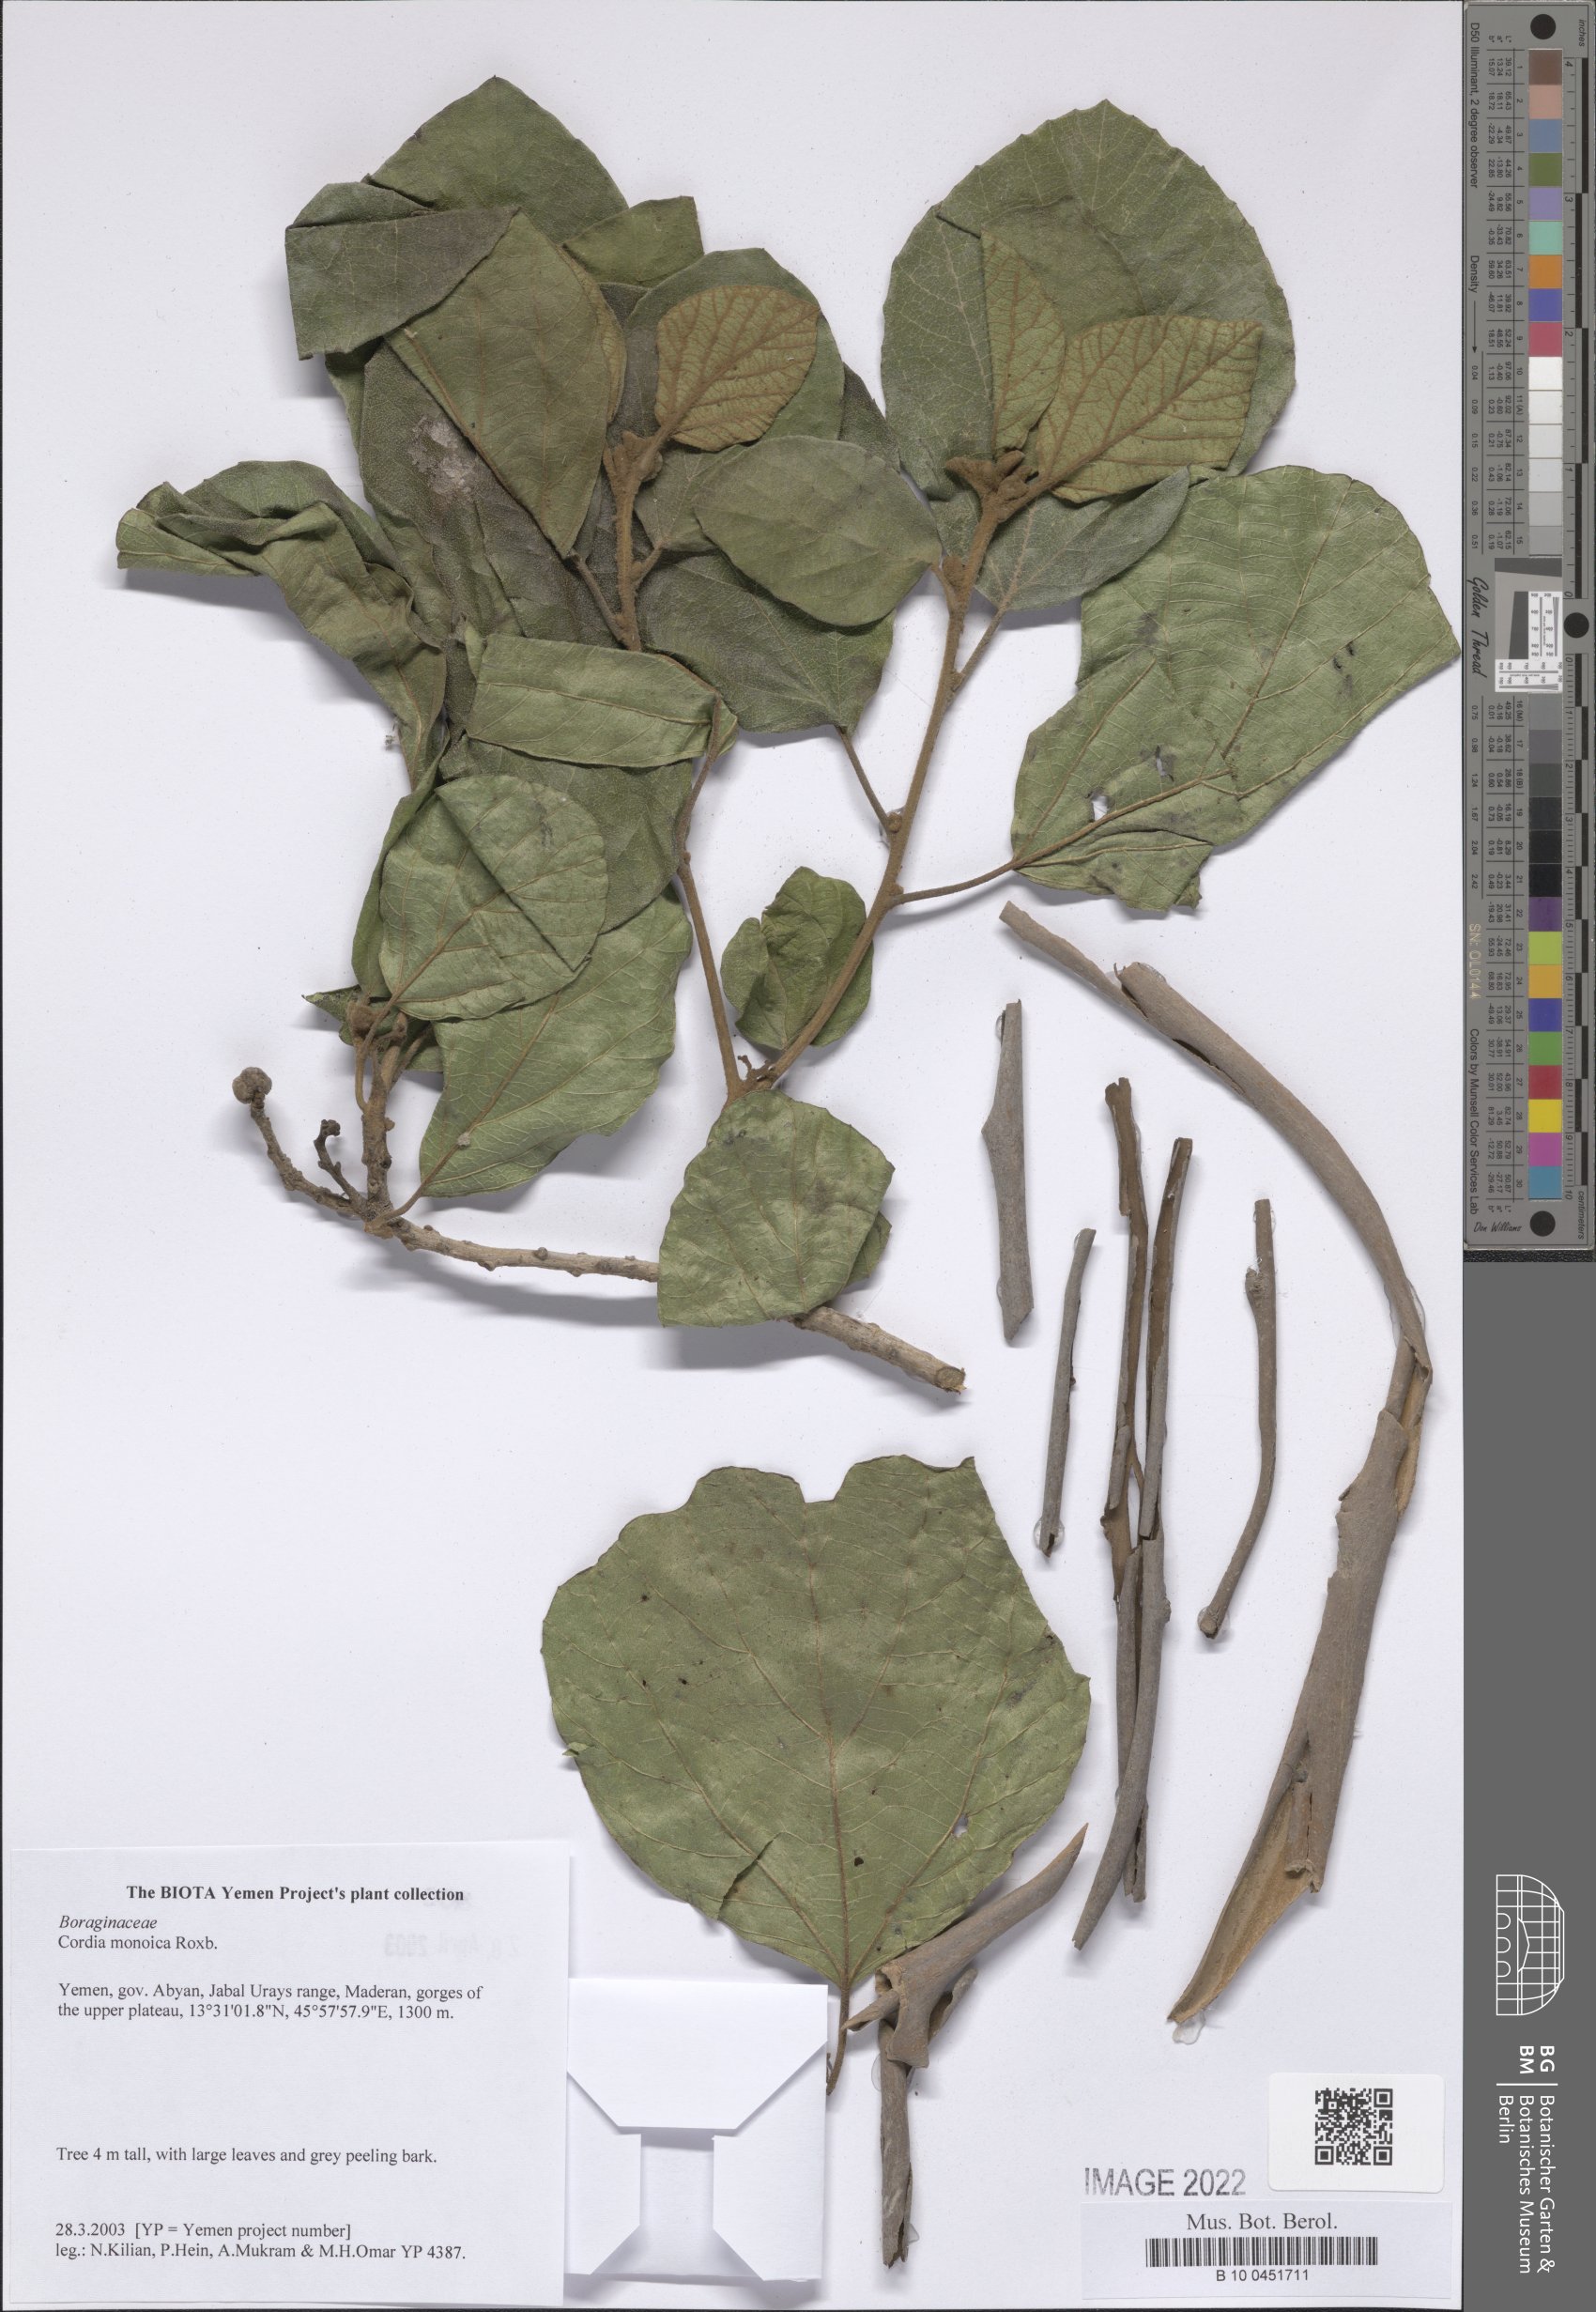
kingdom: Plantae
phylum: Tracheophyta
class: Magnoliopsida
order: Boraginales
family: Cordiaceae
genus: Cordia
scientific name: Cordia monoica
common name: Snot berry
